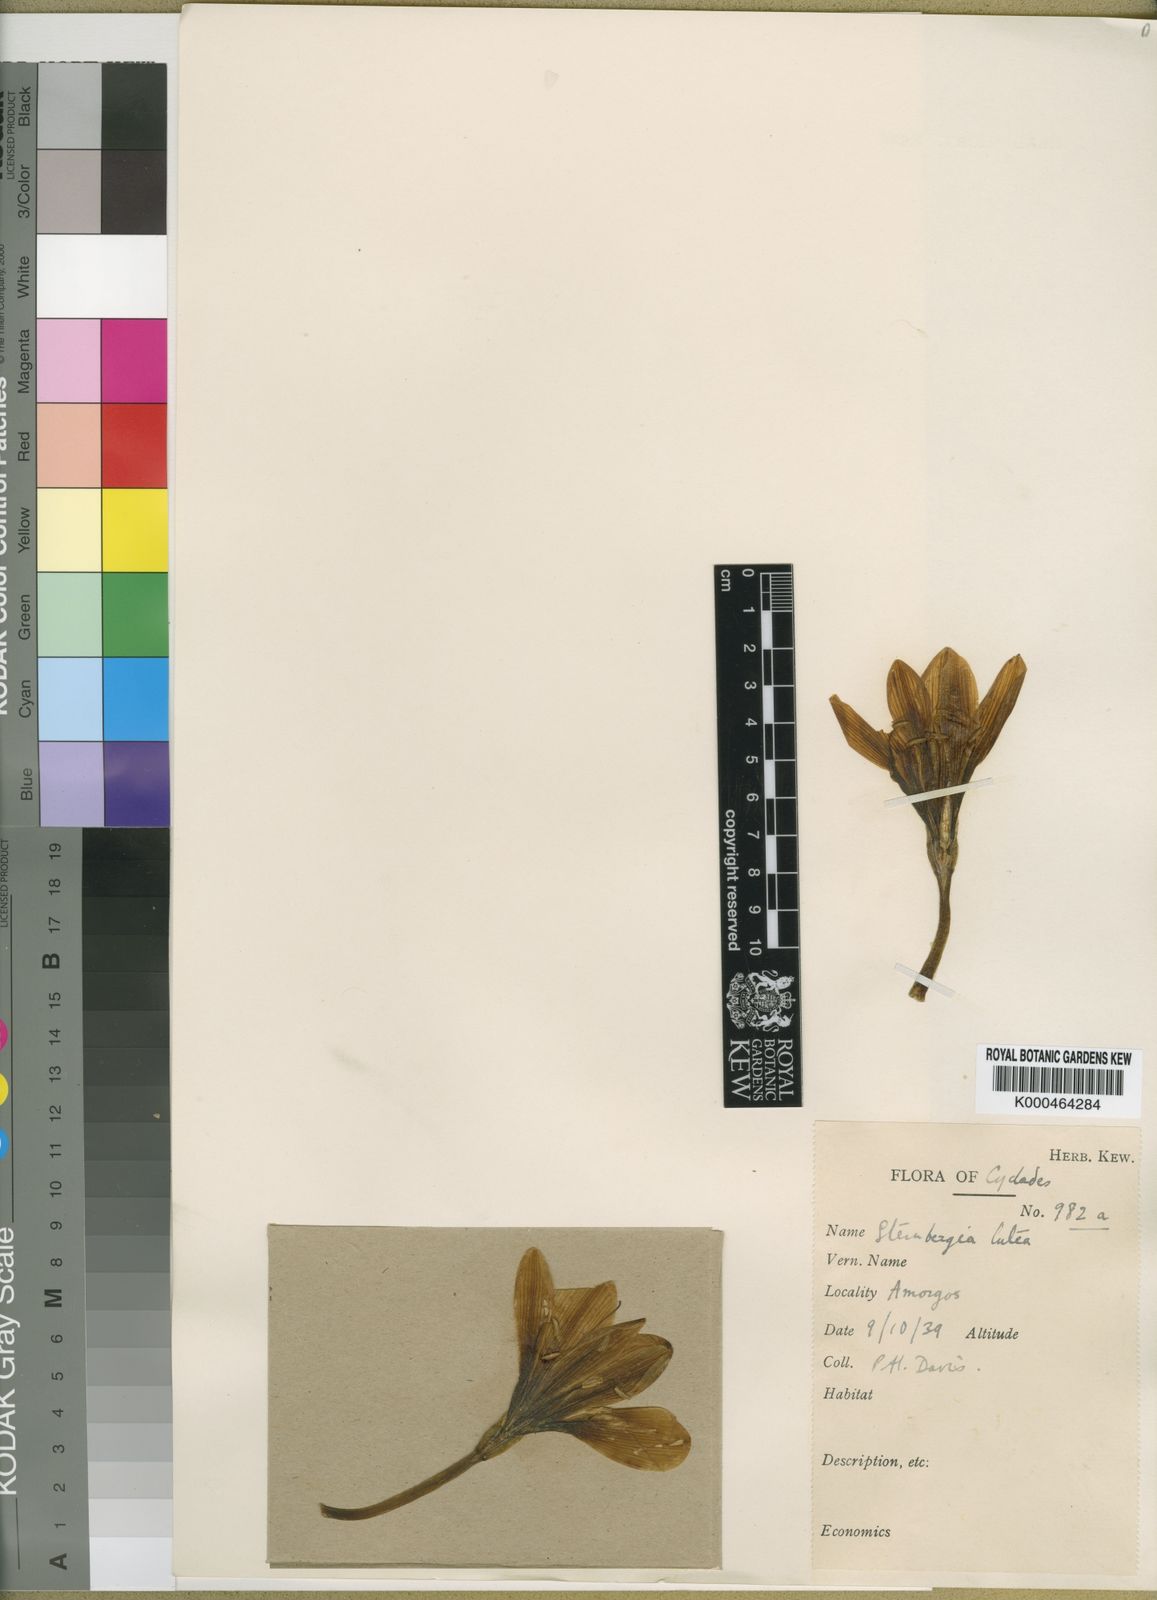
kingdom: Plantae
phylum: Tracheophyta
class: Liliopsida
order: Asparagales
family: Amaryllidaceae
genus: Sternbergia
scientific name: Sternbergia
